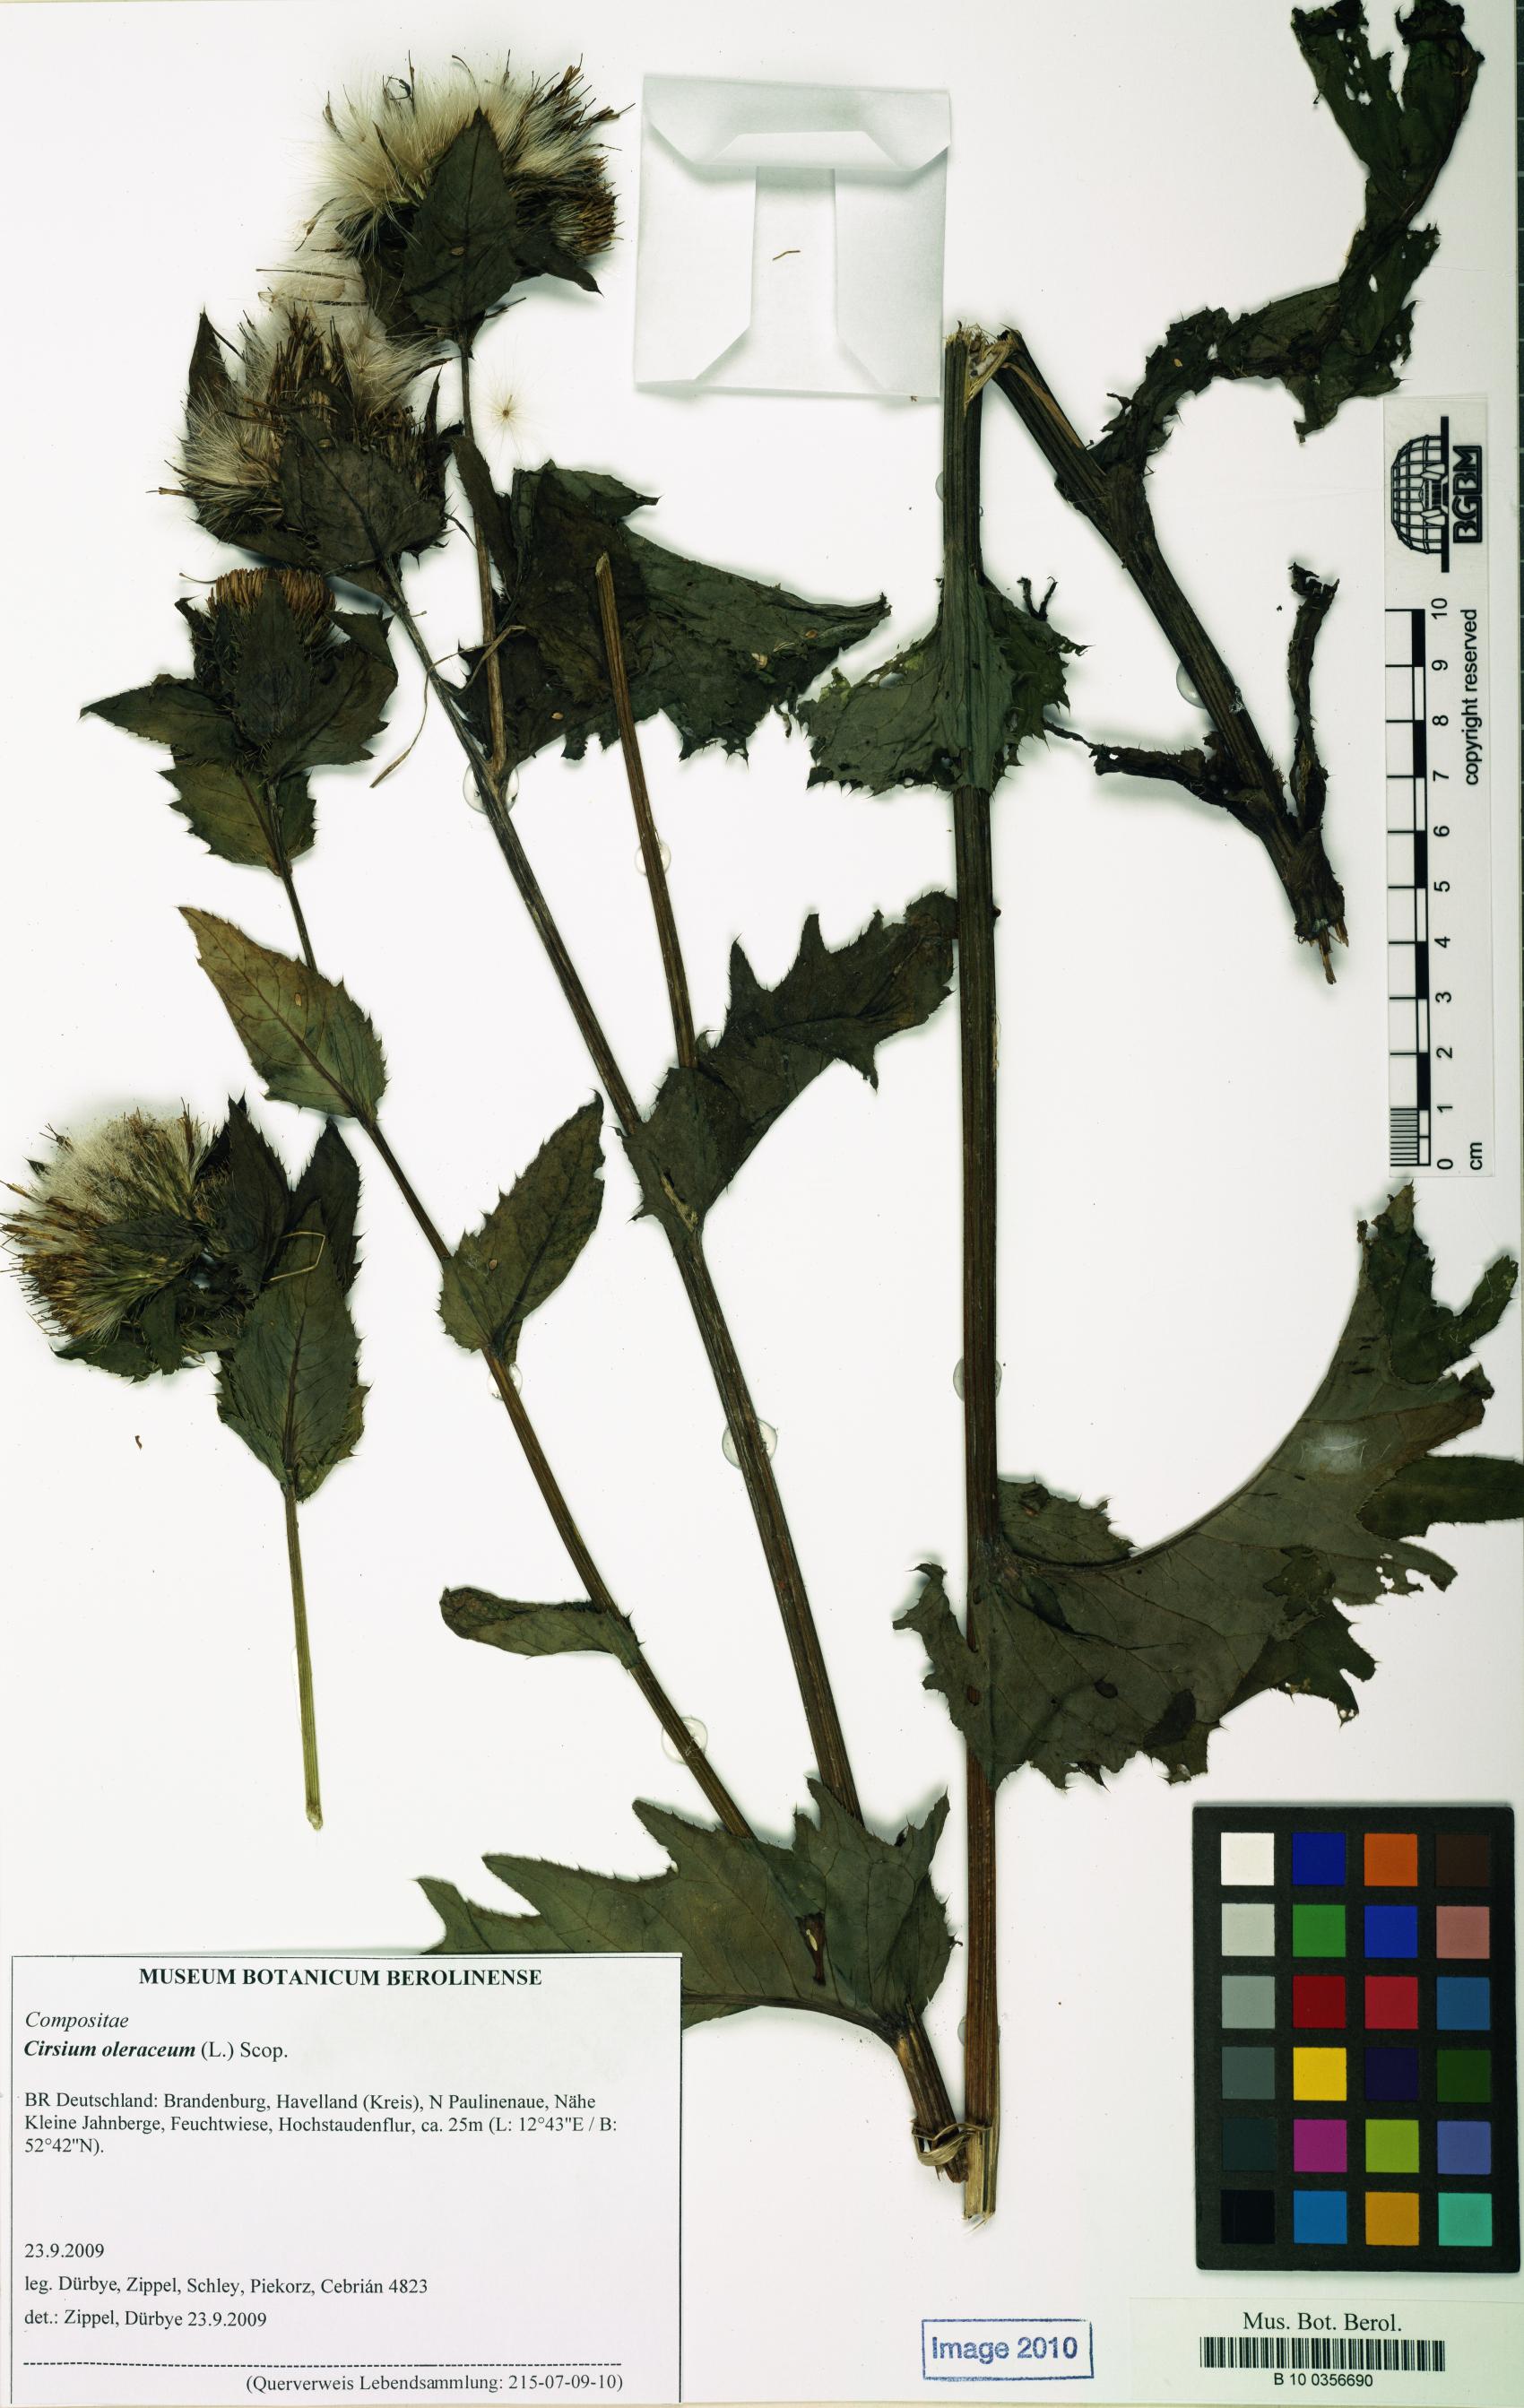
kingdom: Plantae
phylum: Tracheophyta
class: Magnoliopsida
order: Asterales
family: Asteraceae
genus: Cirsium
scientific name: Cirsium oleraceum
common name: Cabbage thistle
